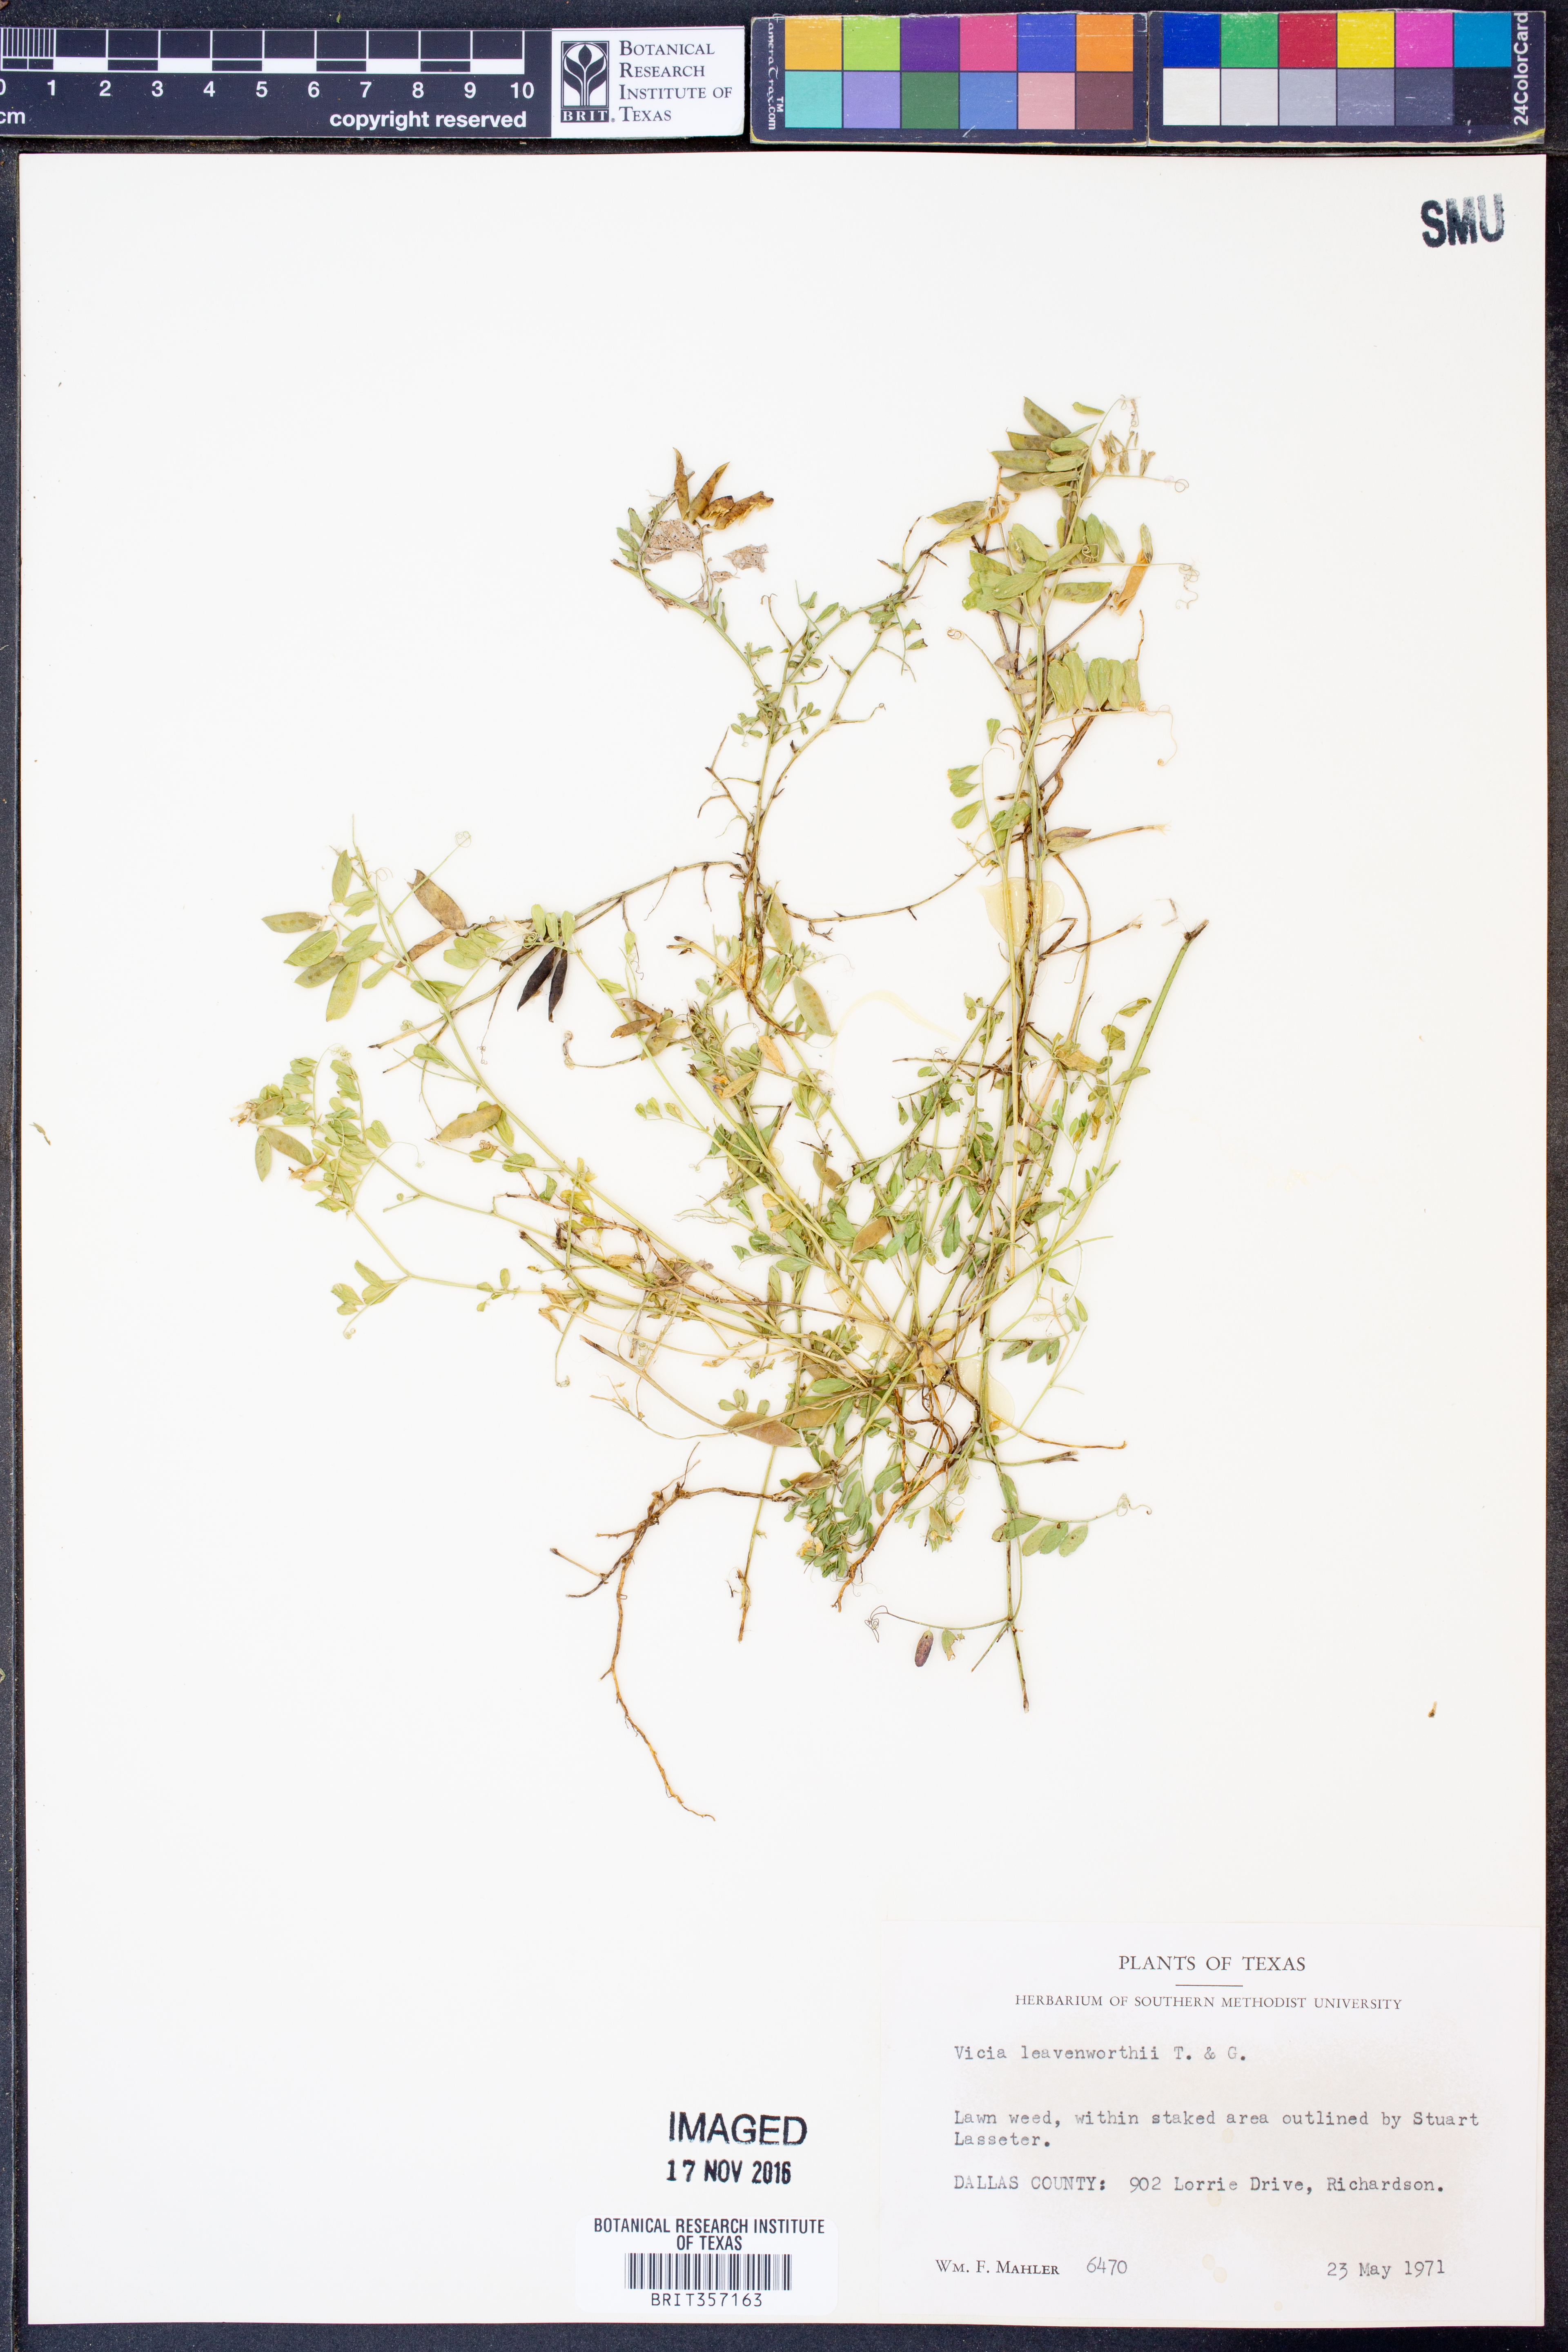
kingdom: Plantae
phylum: Tracheophyta
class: Magnoliopsida
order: Fabales
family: Fabaceae
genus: Vicia
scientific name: Vicia ludoviciana
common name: Louisiana vetch
